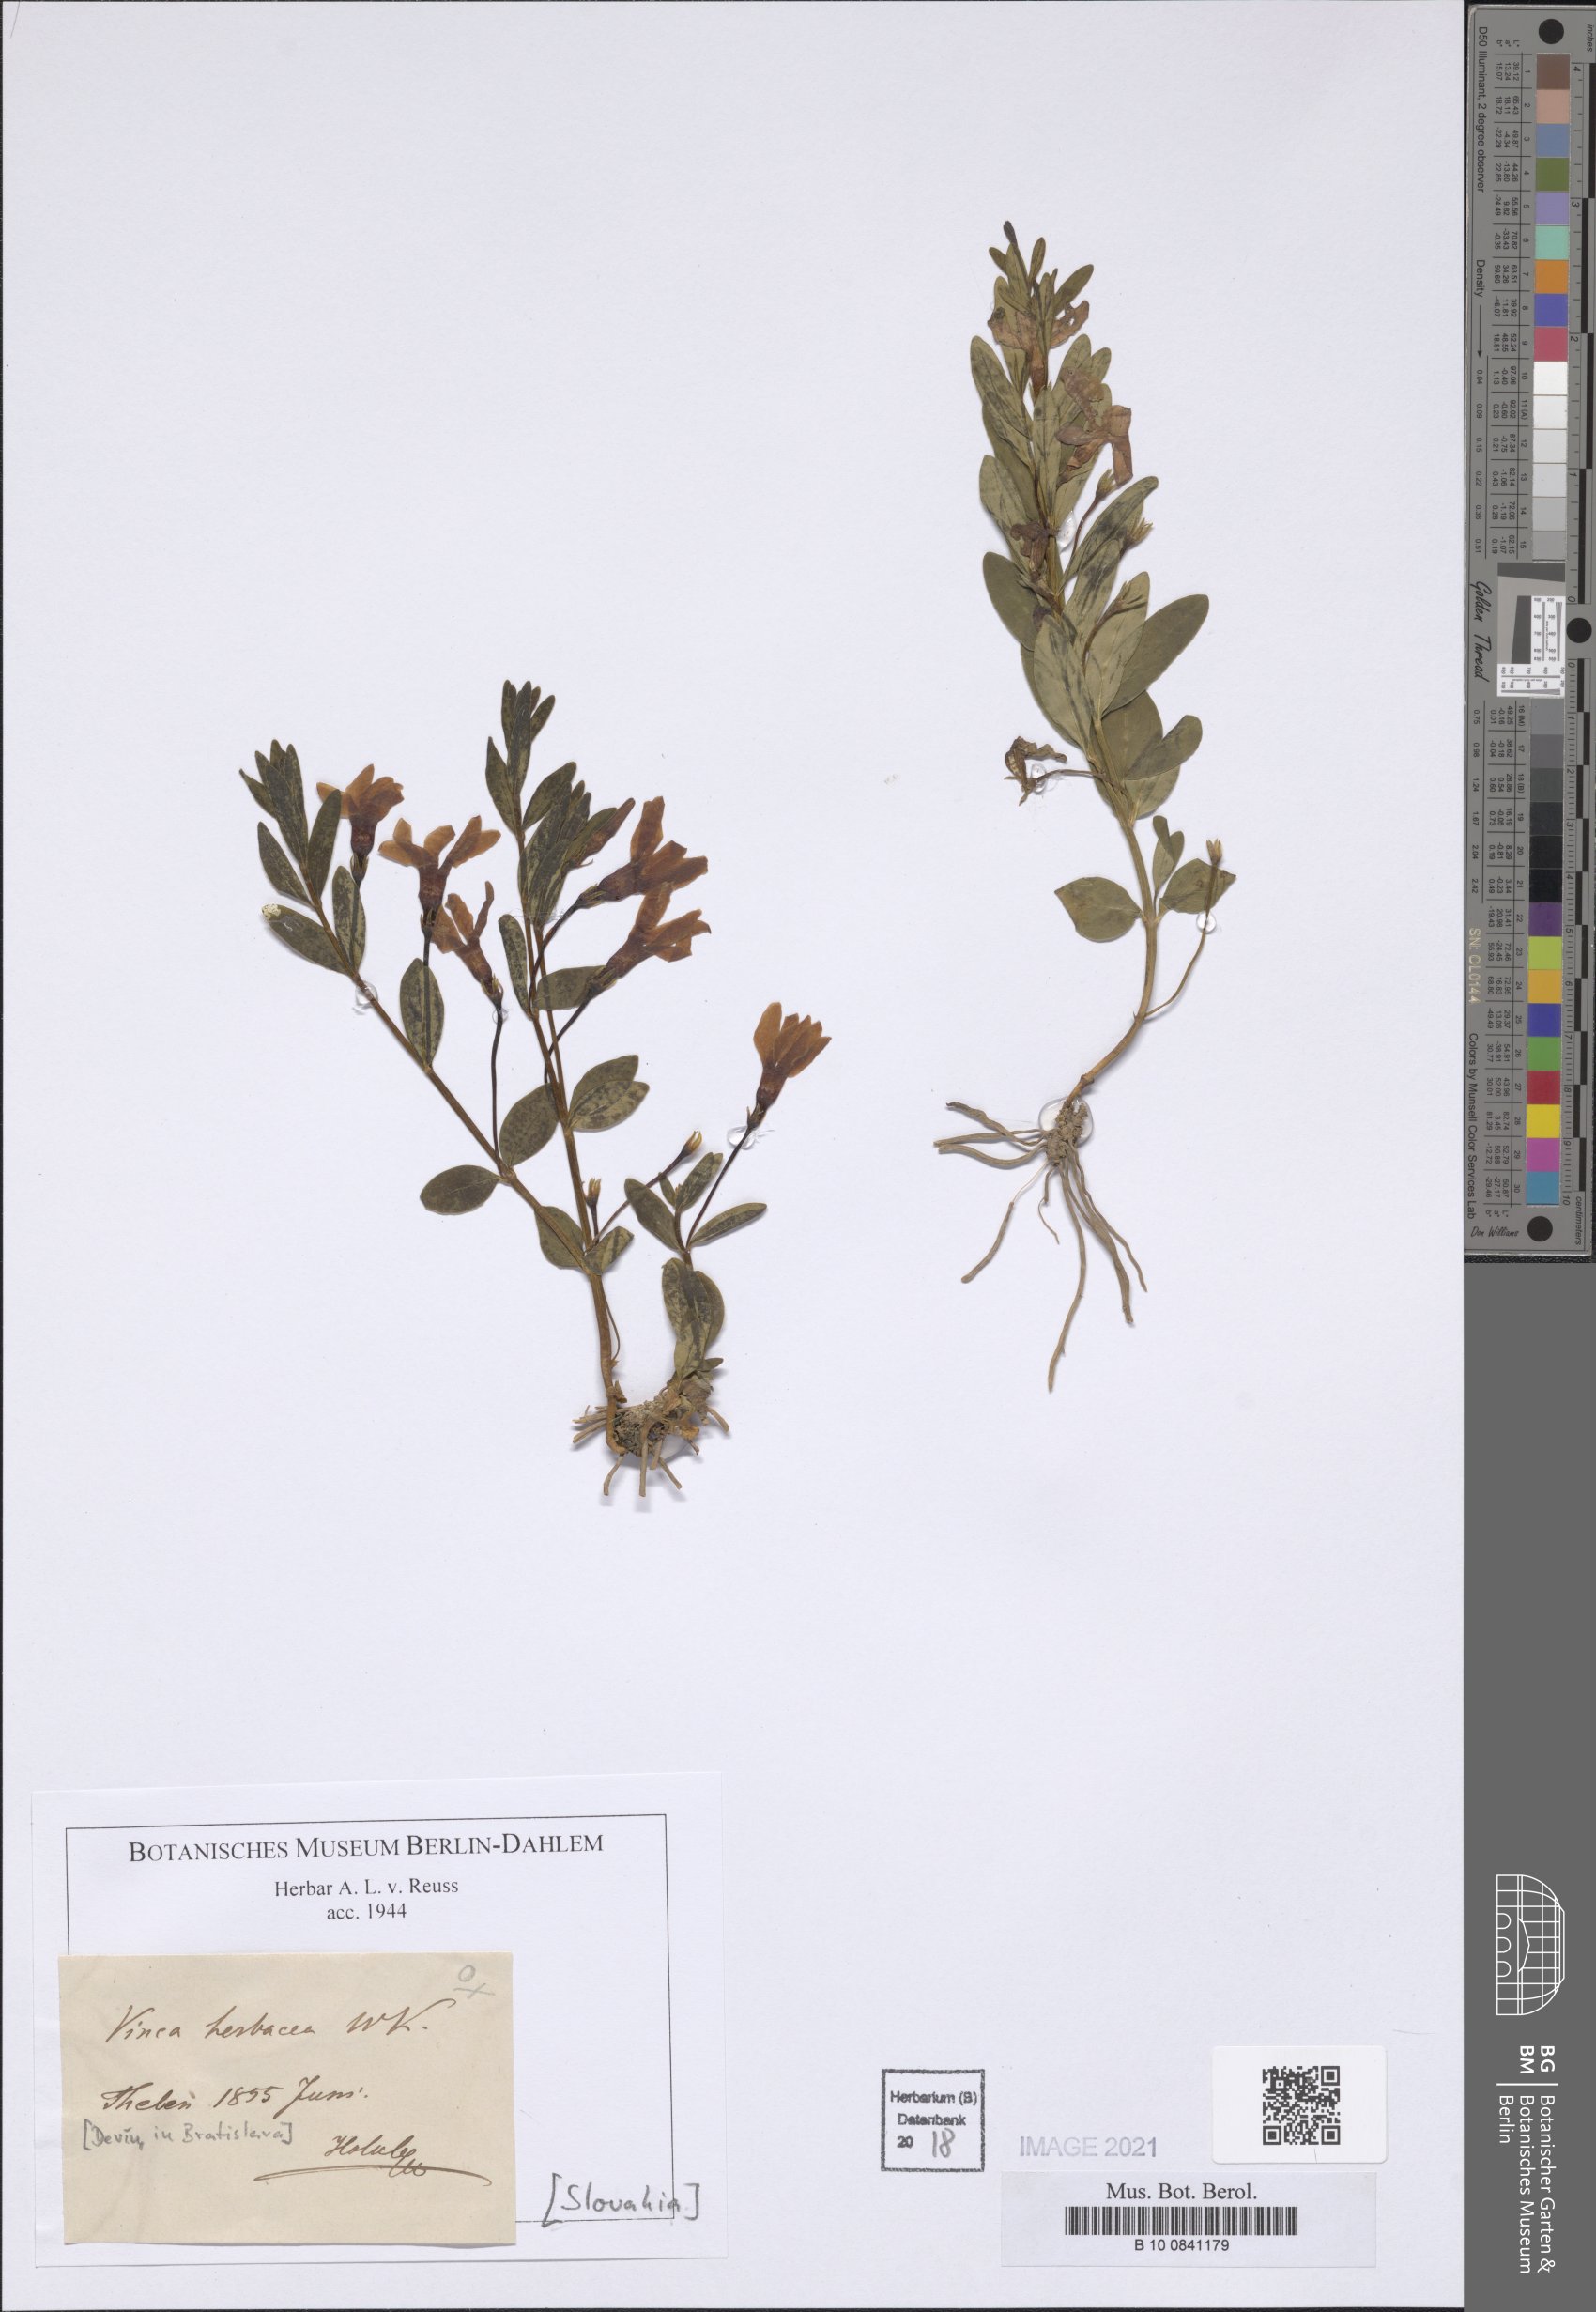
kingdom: Plantae
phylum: Tracheophyta
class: Magnoliopsida
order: Gentianales
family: Apocynaceae
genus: Vinca
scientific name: Vinca herbacea
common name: Herbaceous periwinkle
